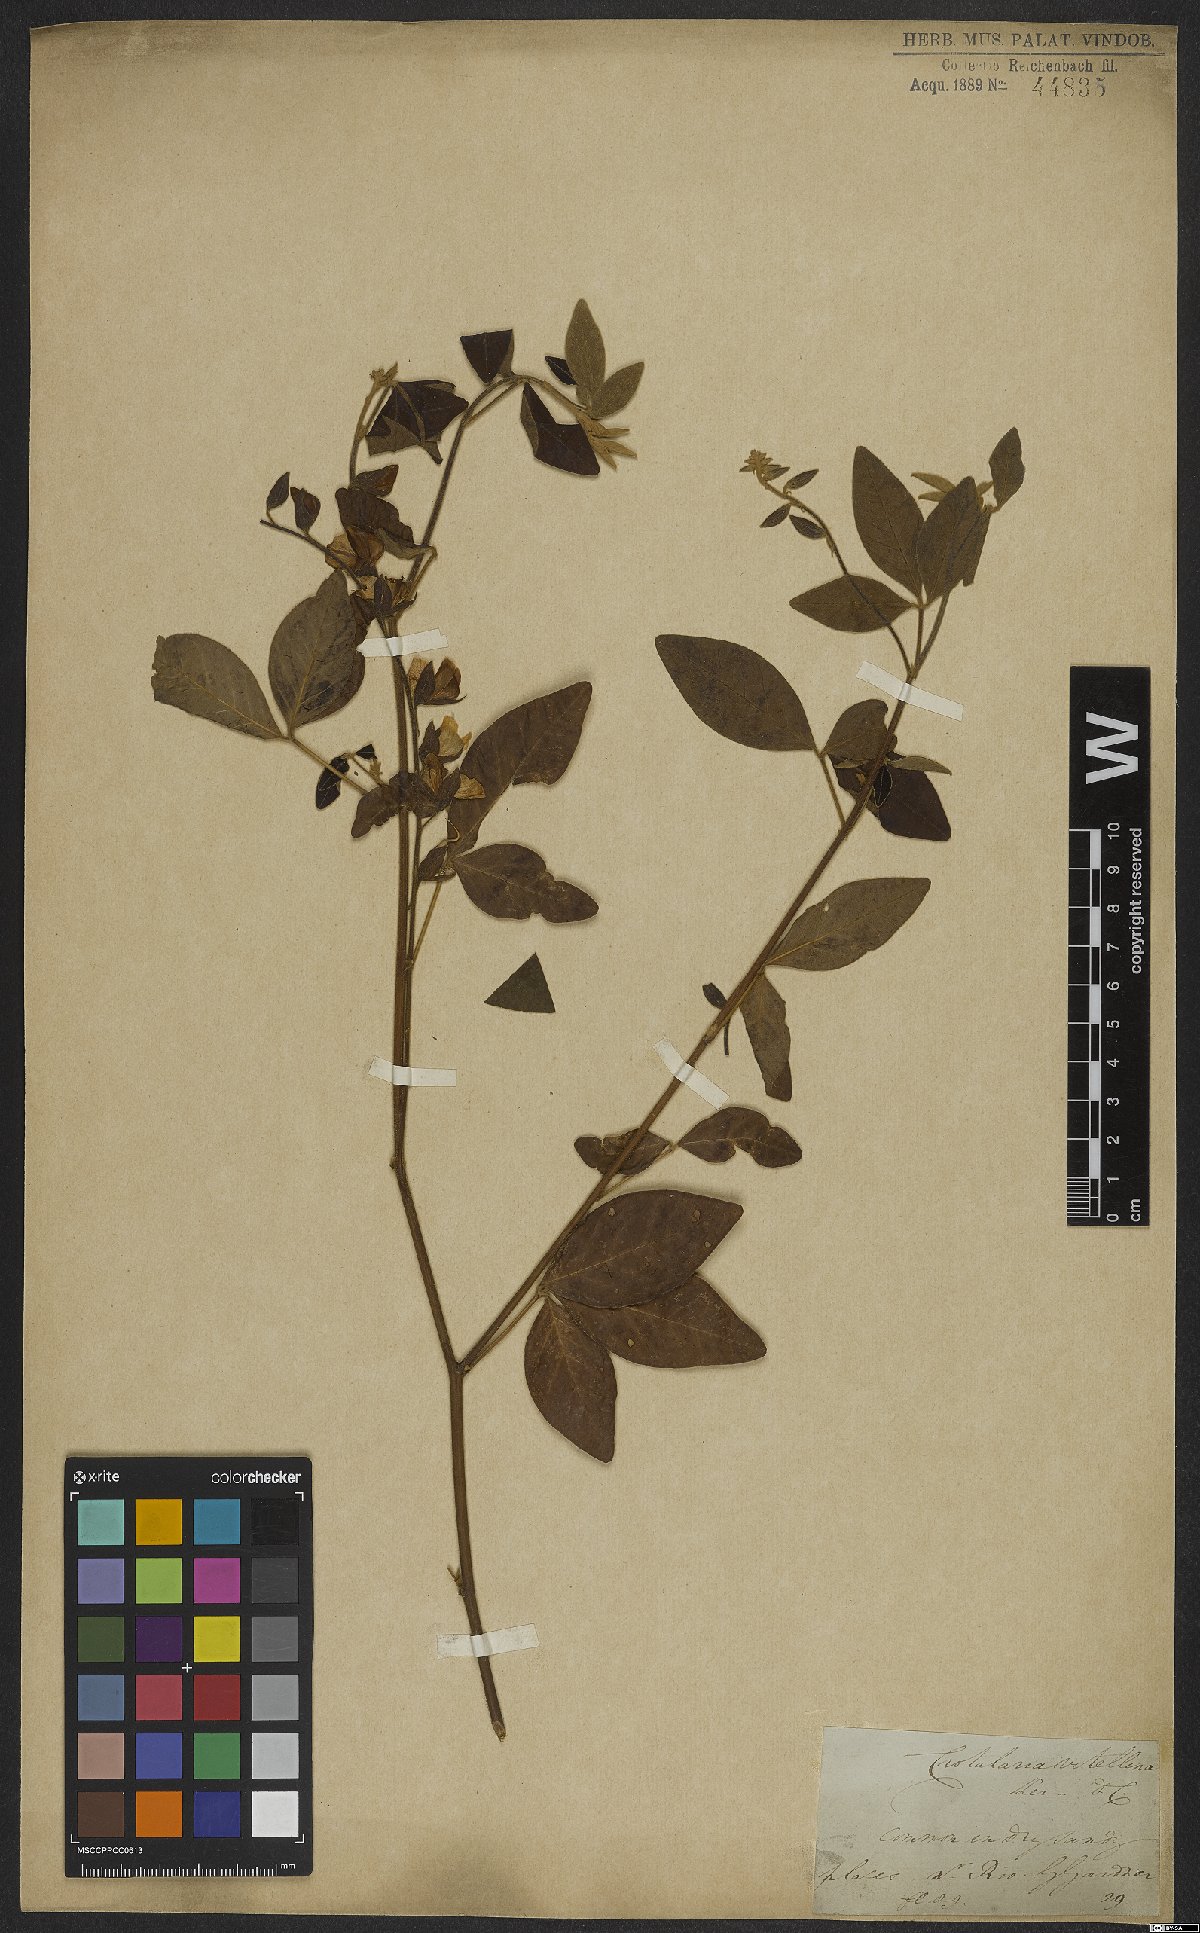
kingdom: Plantae
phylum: Tracheophyta
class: Magnoliopsida
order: Fabales
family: Fabaceae
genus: Crotalaria
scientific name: Crotalaria vitellina
